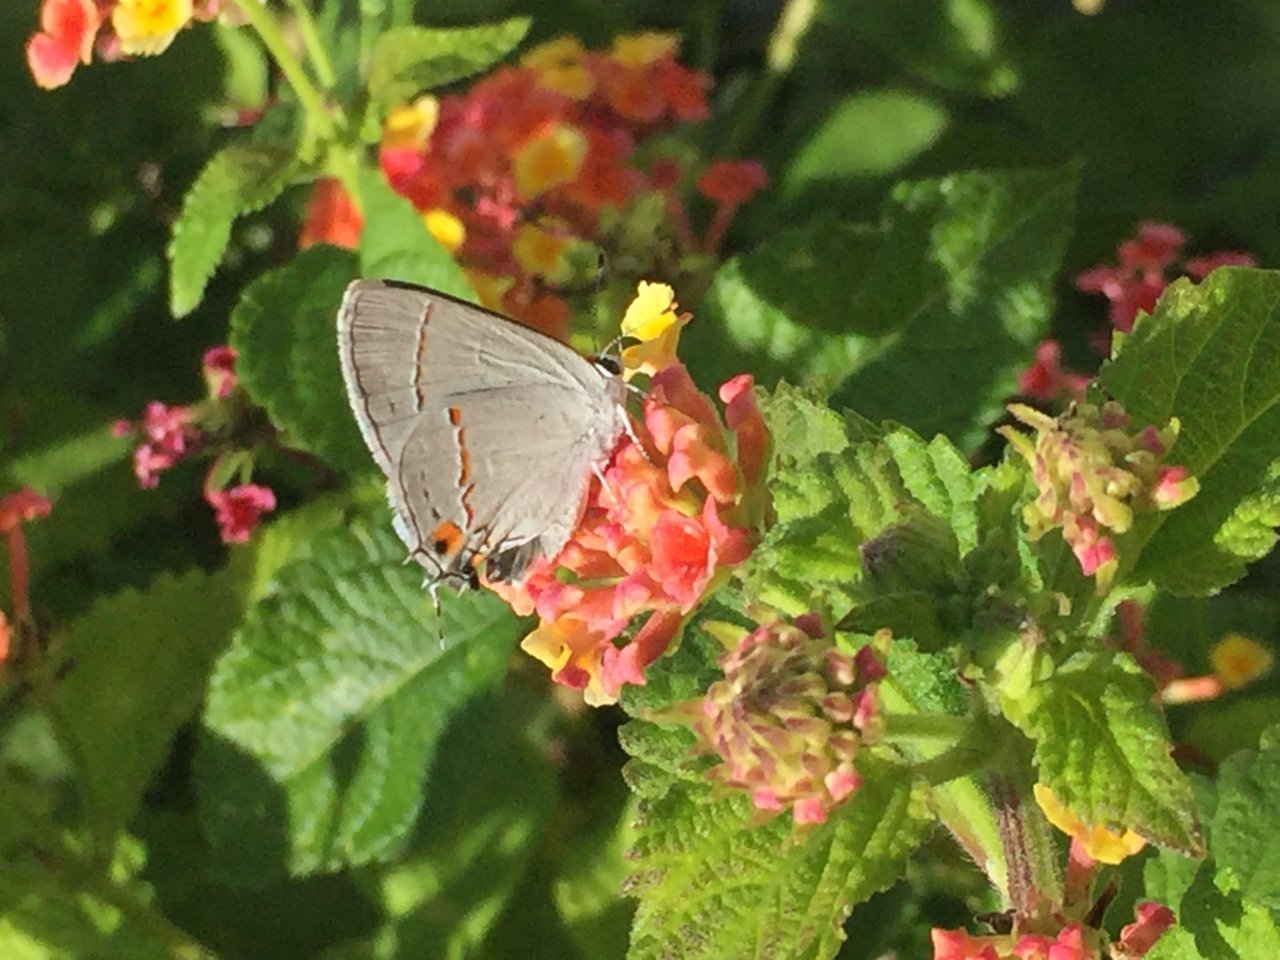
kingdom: Animalia
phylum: Arthropoda
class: Insecta
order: Lepidoptera
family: Lycaenidae
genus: Strymon
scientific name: Strymon melinus
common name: Gray Hairstreak
